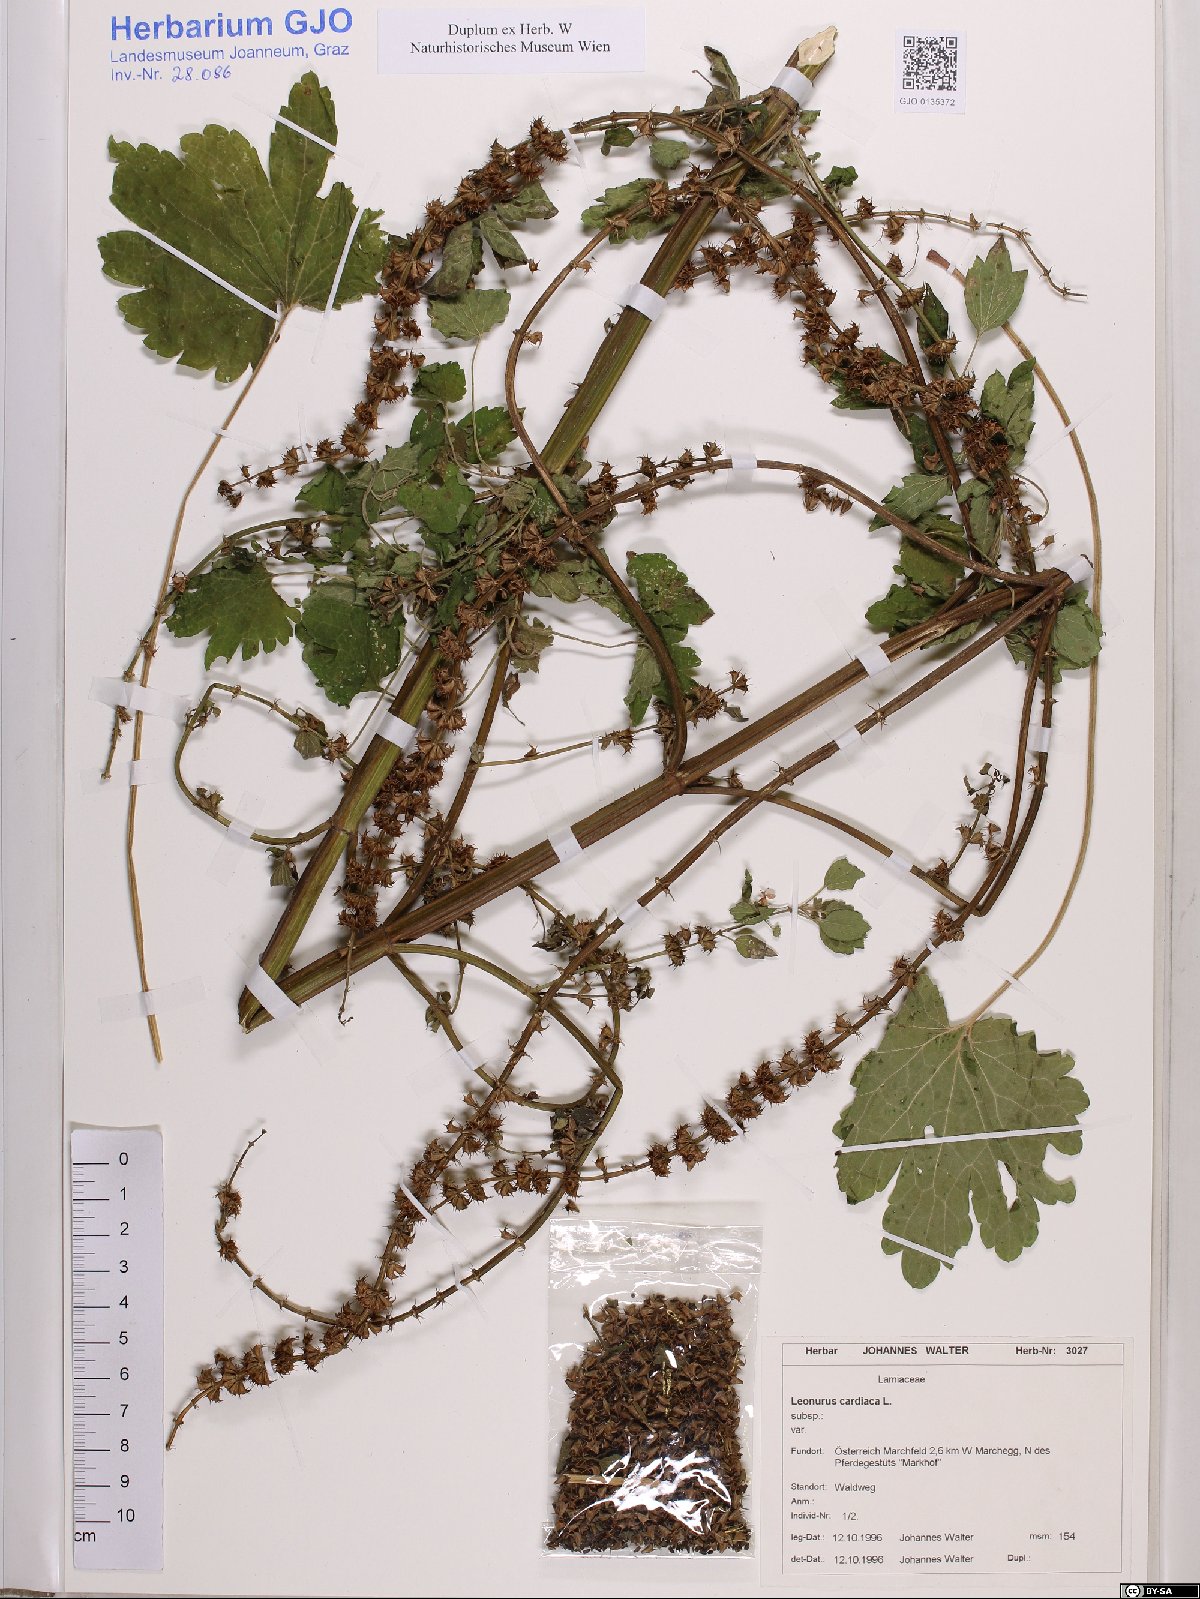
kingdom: Plantae
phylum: Tracheophyta
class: Magnoliopsida
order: Lamiales
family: Lamiaceae
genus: Leonurus
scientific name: Leonurus cardiaca
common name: Motherwort
